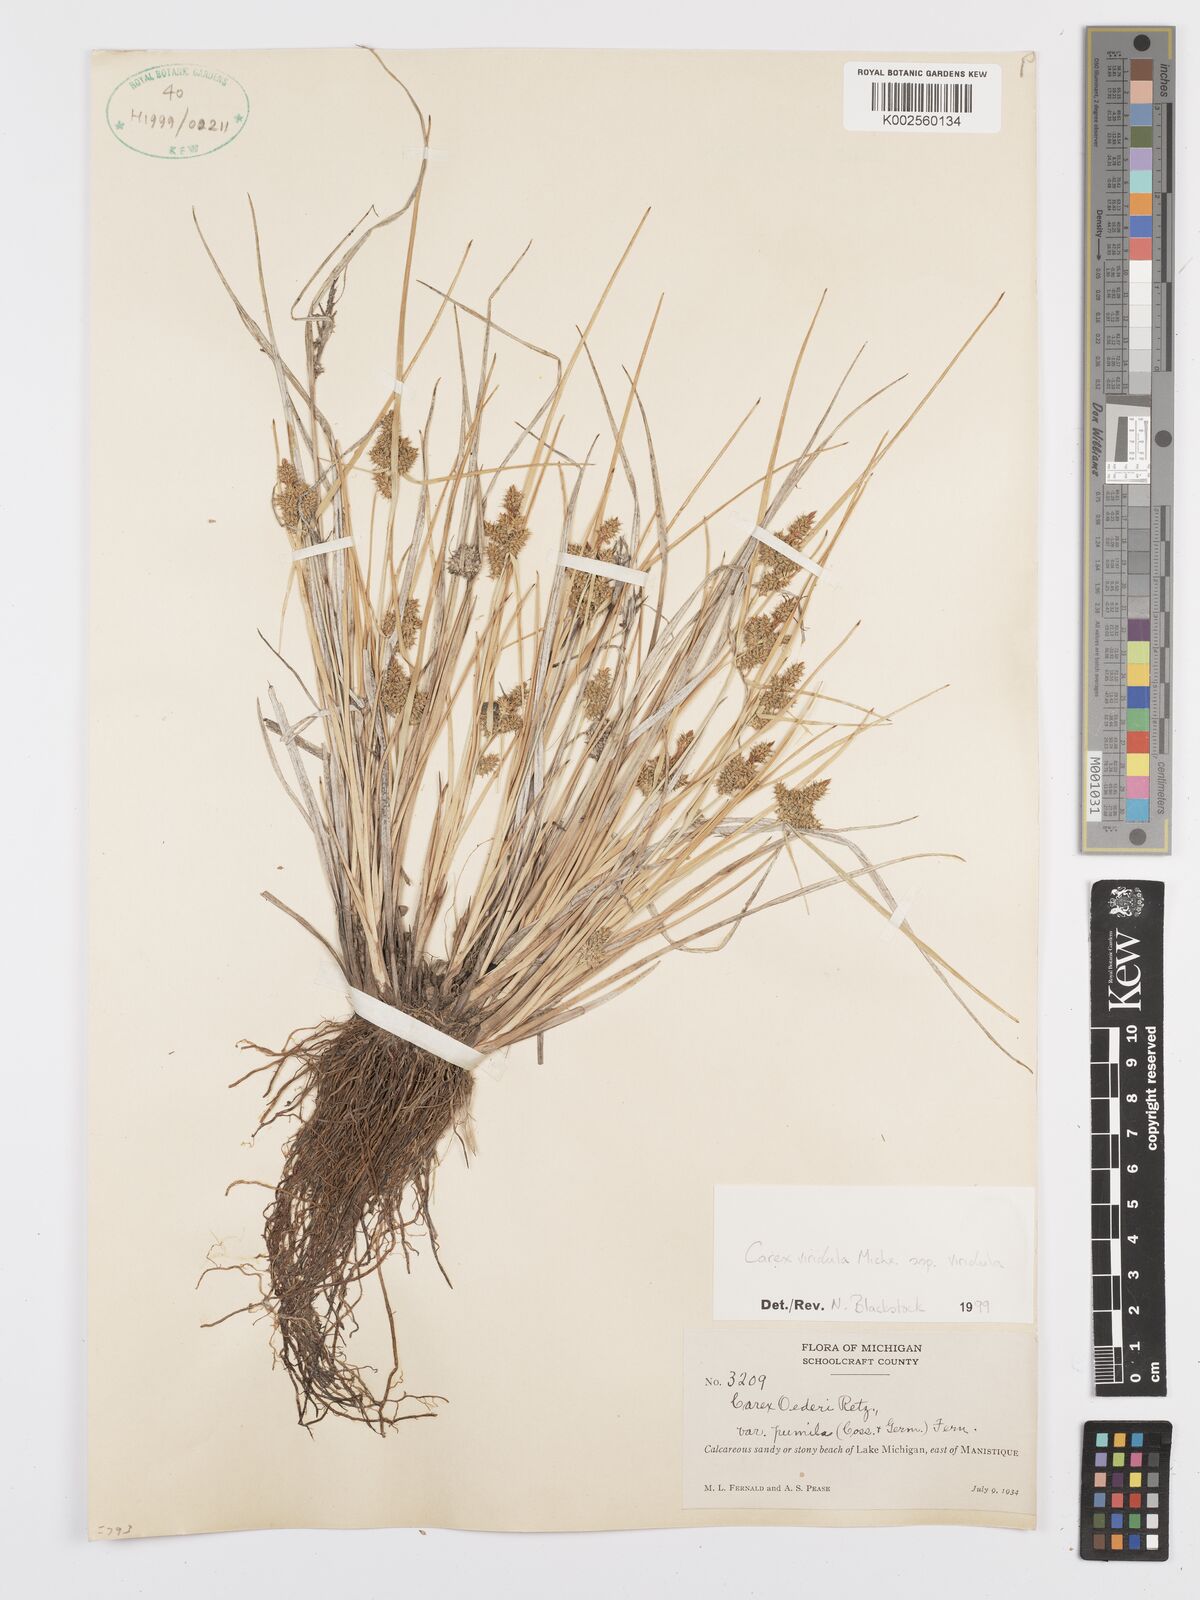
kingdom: Plantae
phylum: Tracheophyta
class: Liliopsida
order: Poales
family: Cyperaceae
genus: Carex
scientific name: Carex oederi
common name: Common & small-fruited yellow-sedge
